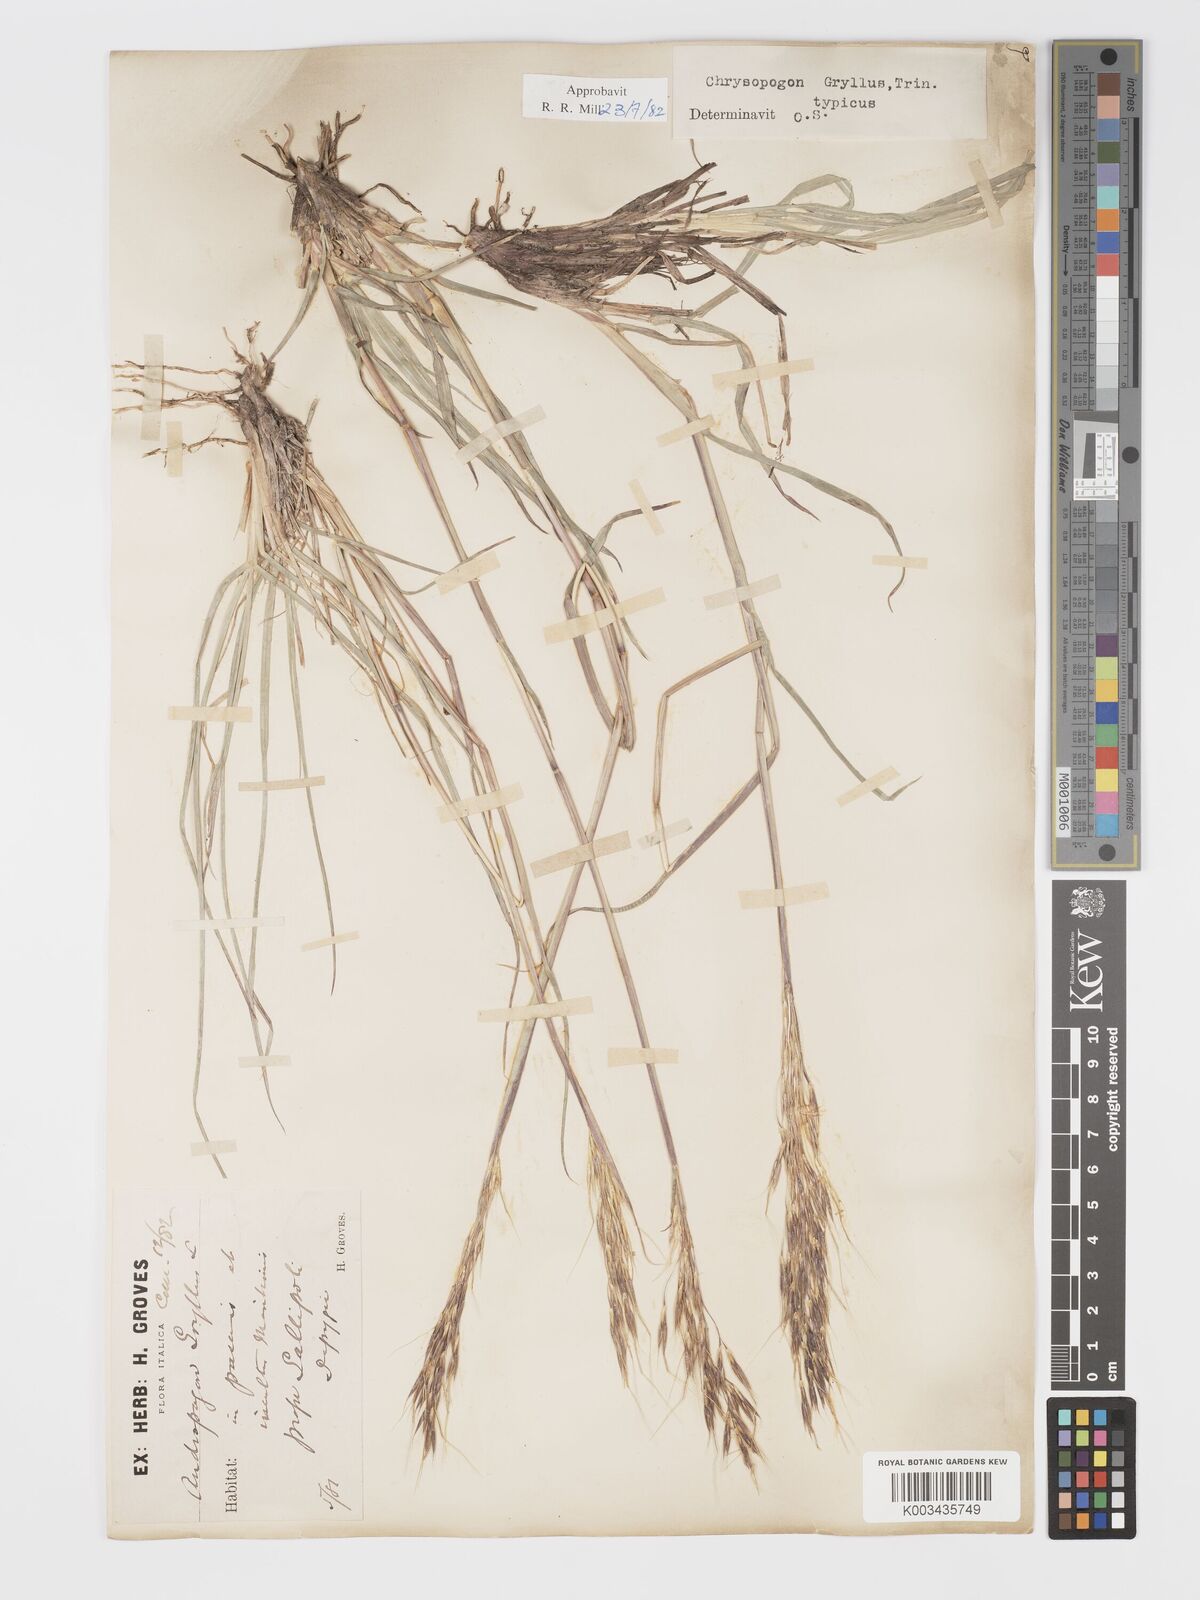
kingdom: Plantae
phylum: Tracheophyta
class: Liliopsida
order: Poales
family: Poaceae
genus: Chrysopogon
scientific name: Chrysopogon gryllus
